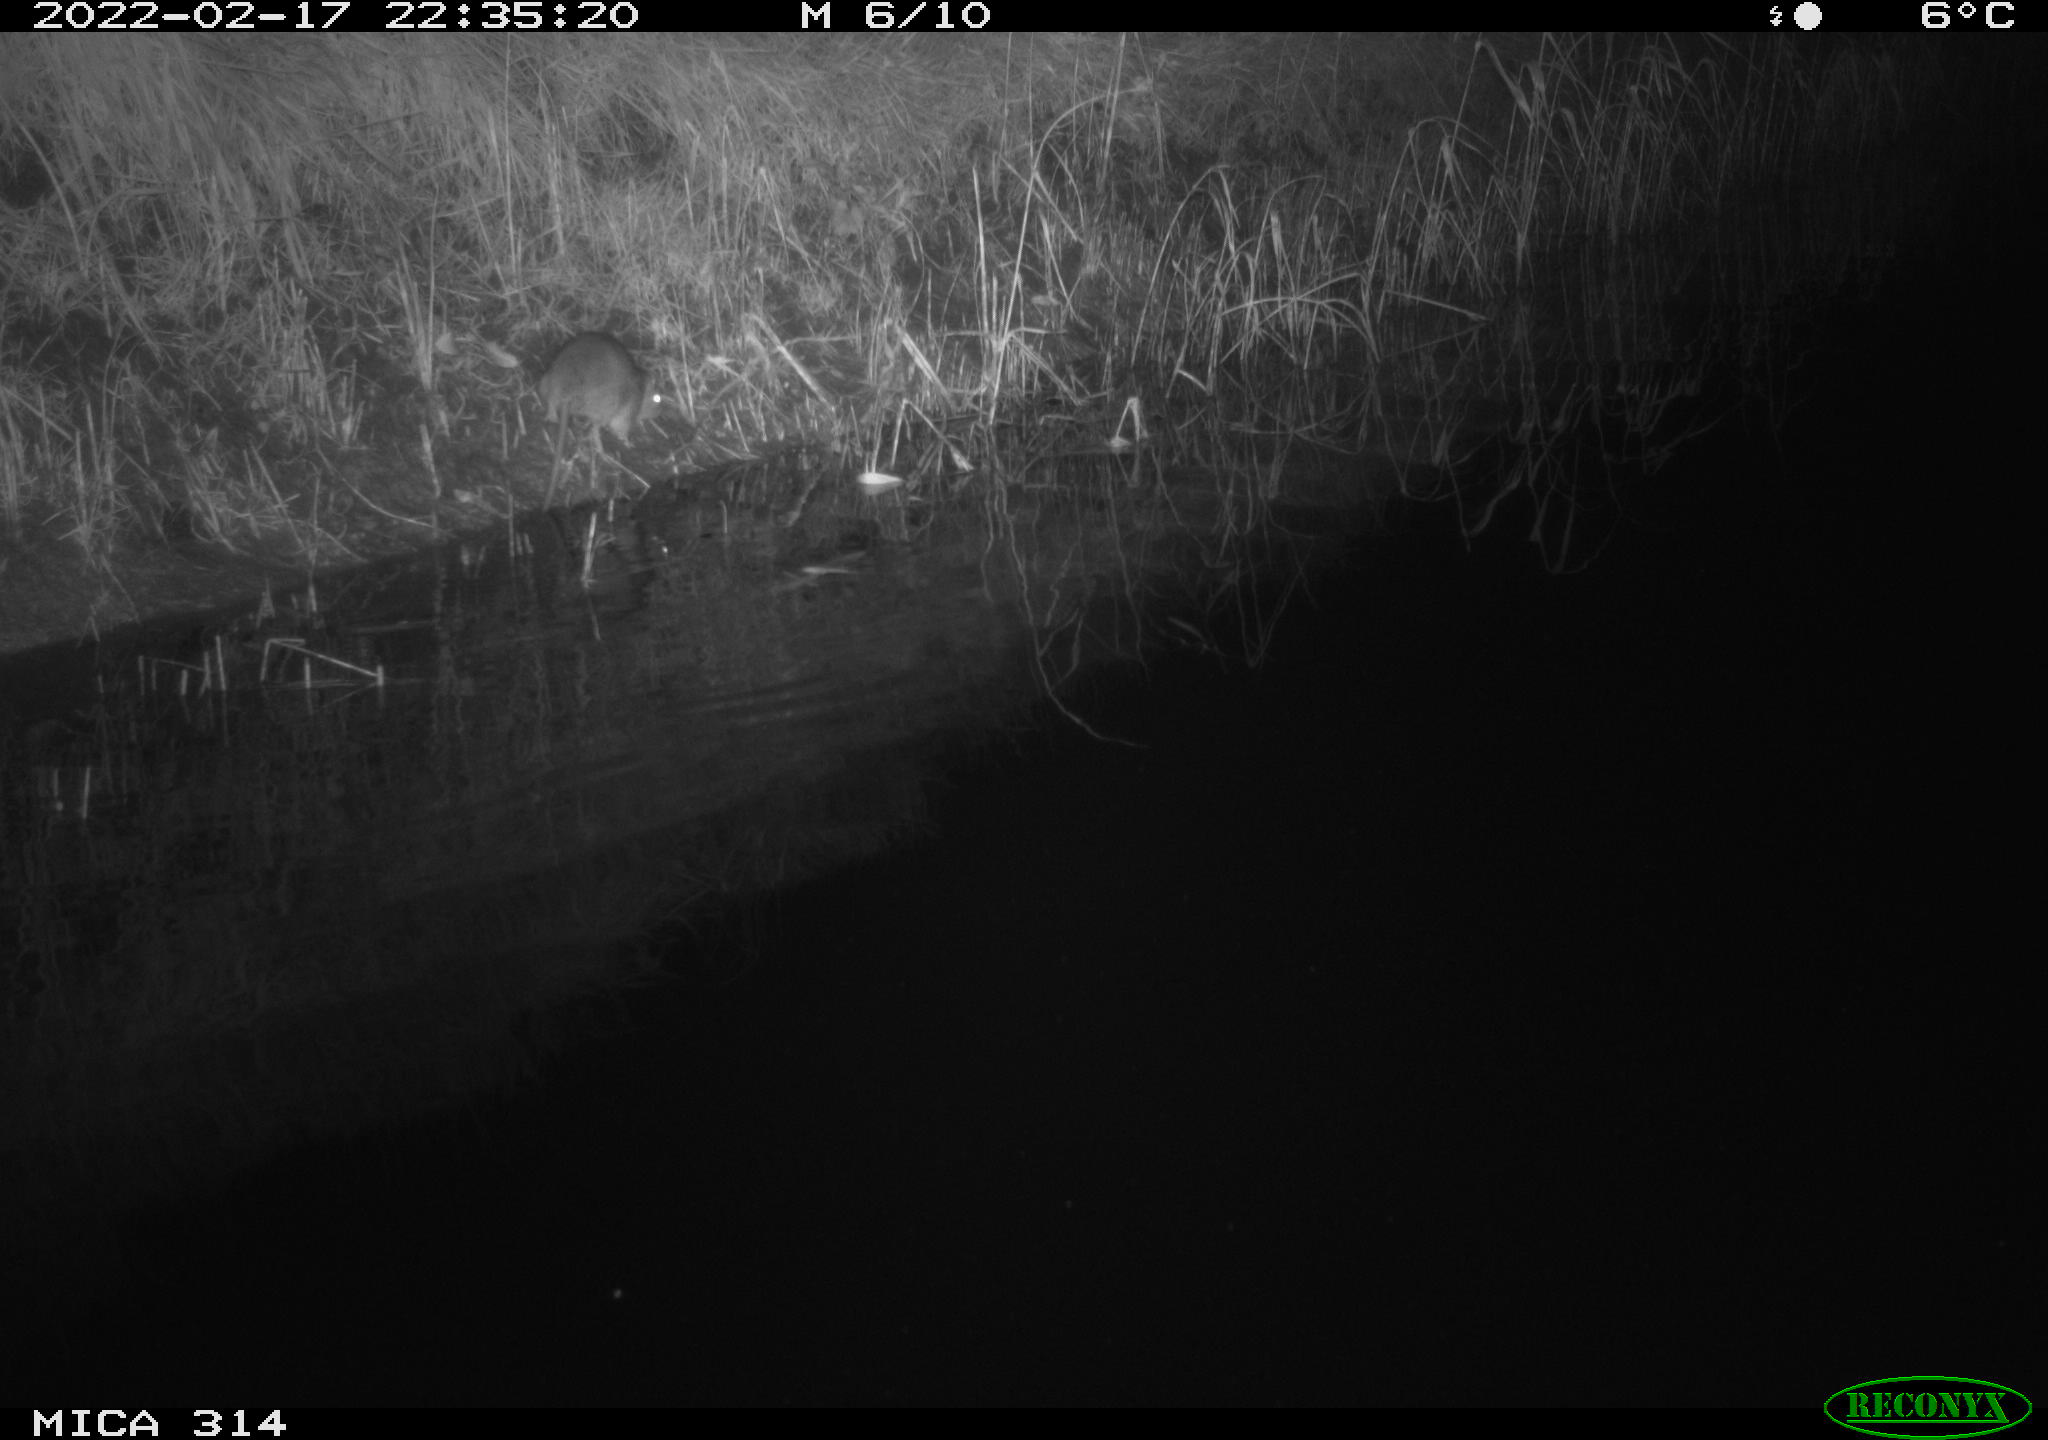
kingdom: Animalia
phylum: Chordata
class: Mammalia
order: Rodentia
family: Muridae
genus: Rattus
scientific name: Rattus norvegicus
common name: Brown rat
